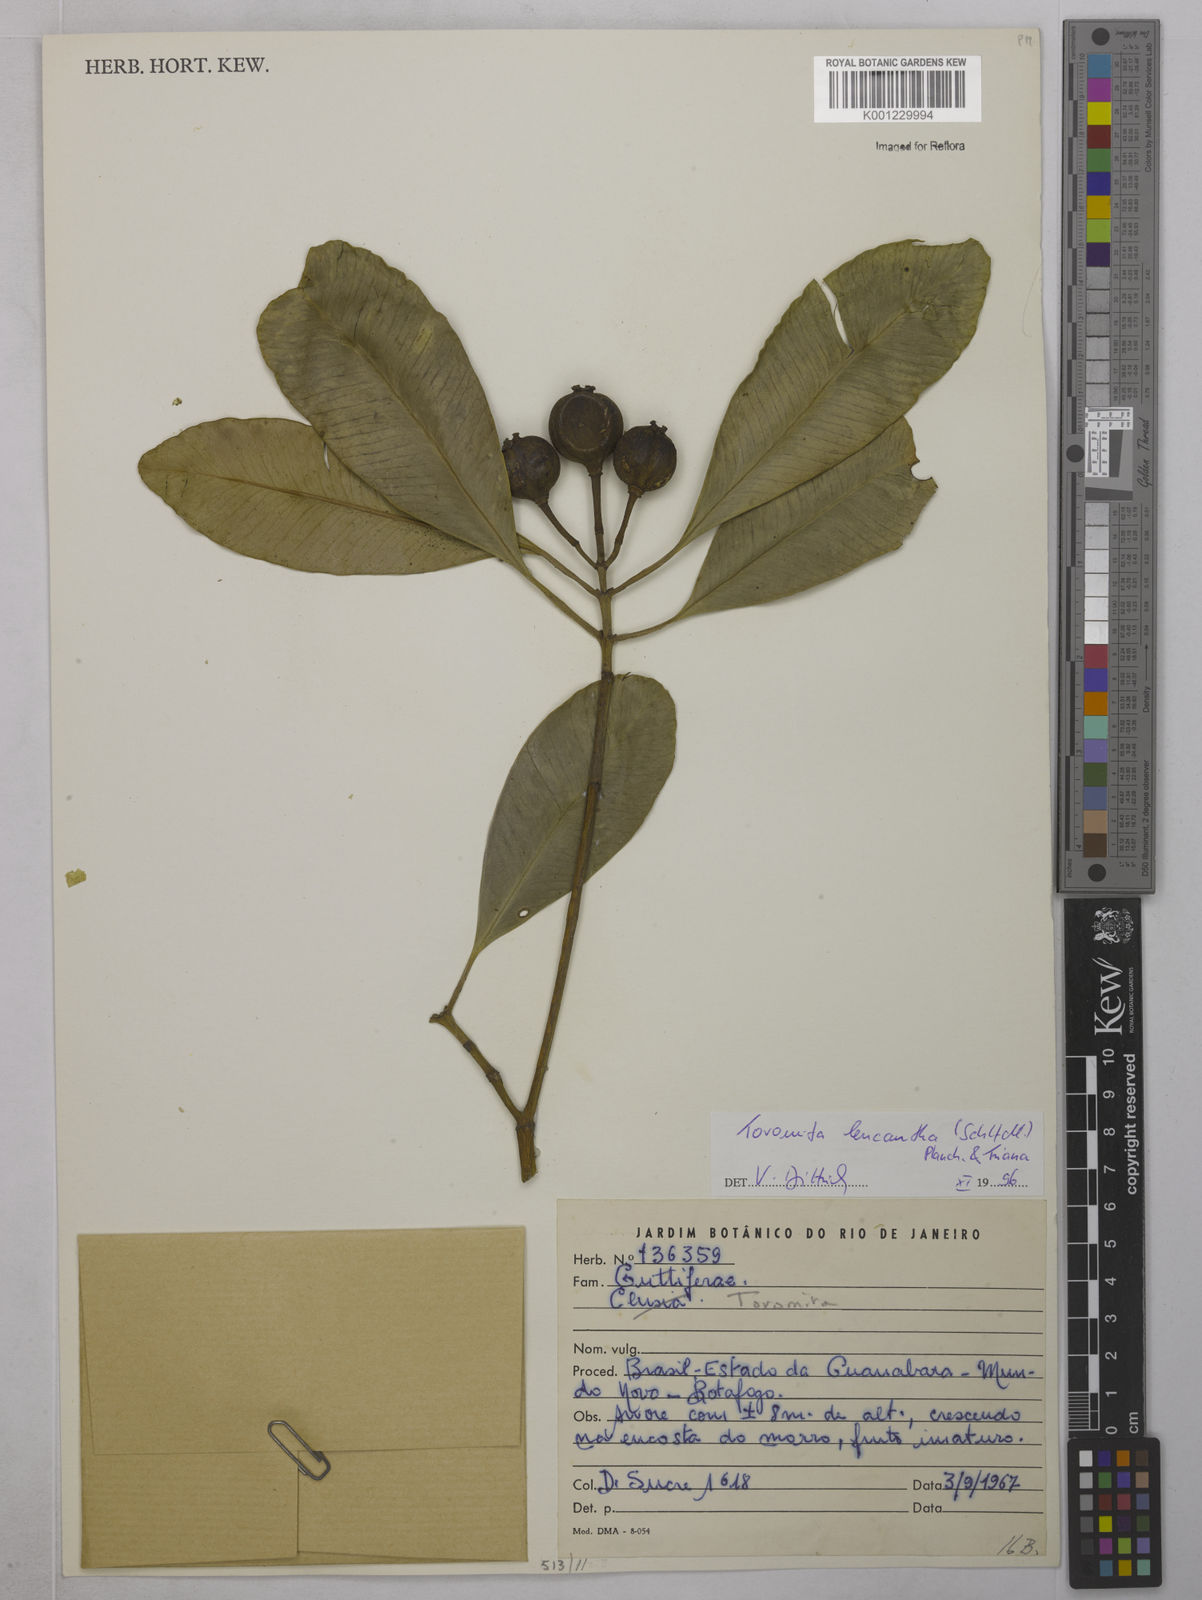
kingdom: Plantae
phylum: Tracheophyta
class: Magnoliopsida
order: Malpighiales
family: Clusiaceae
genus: Tovomita
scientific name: Tovomita leucantha
